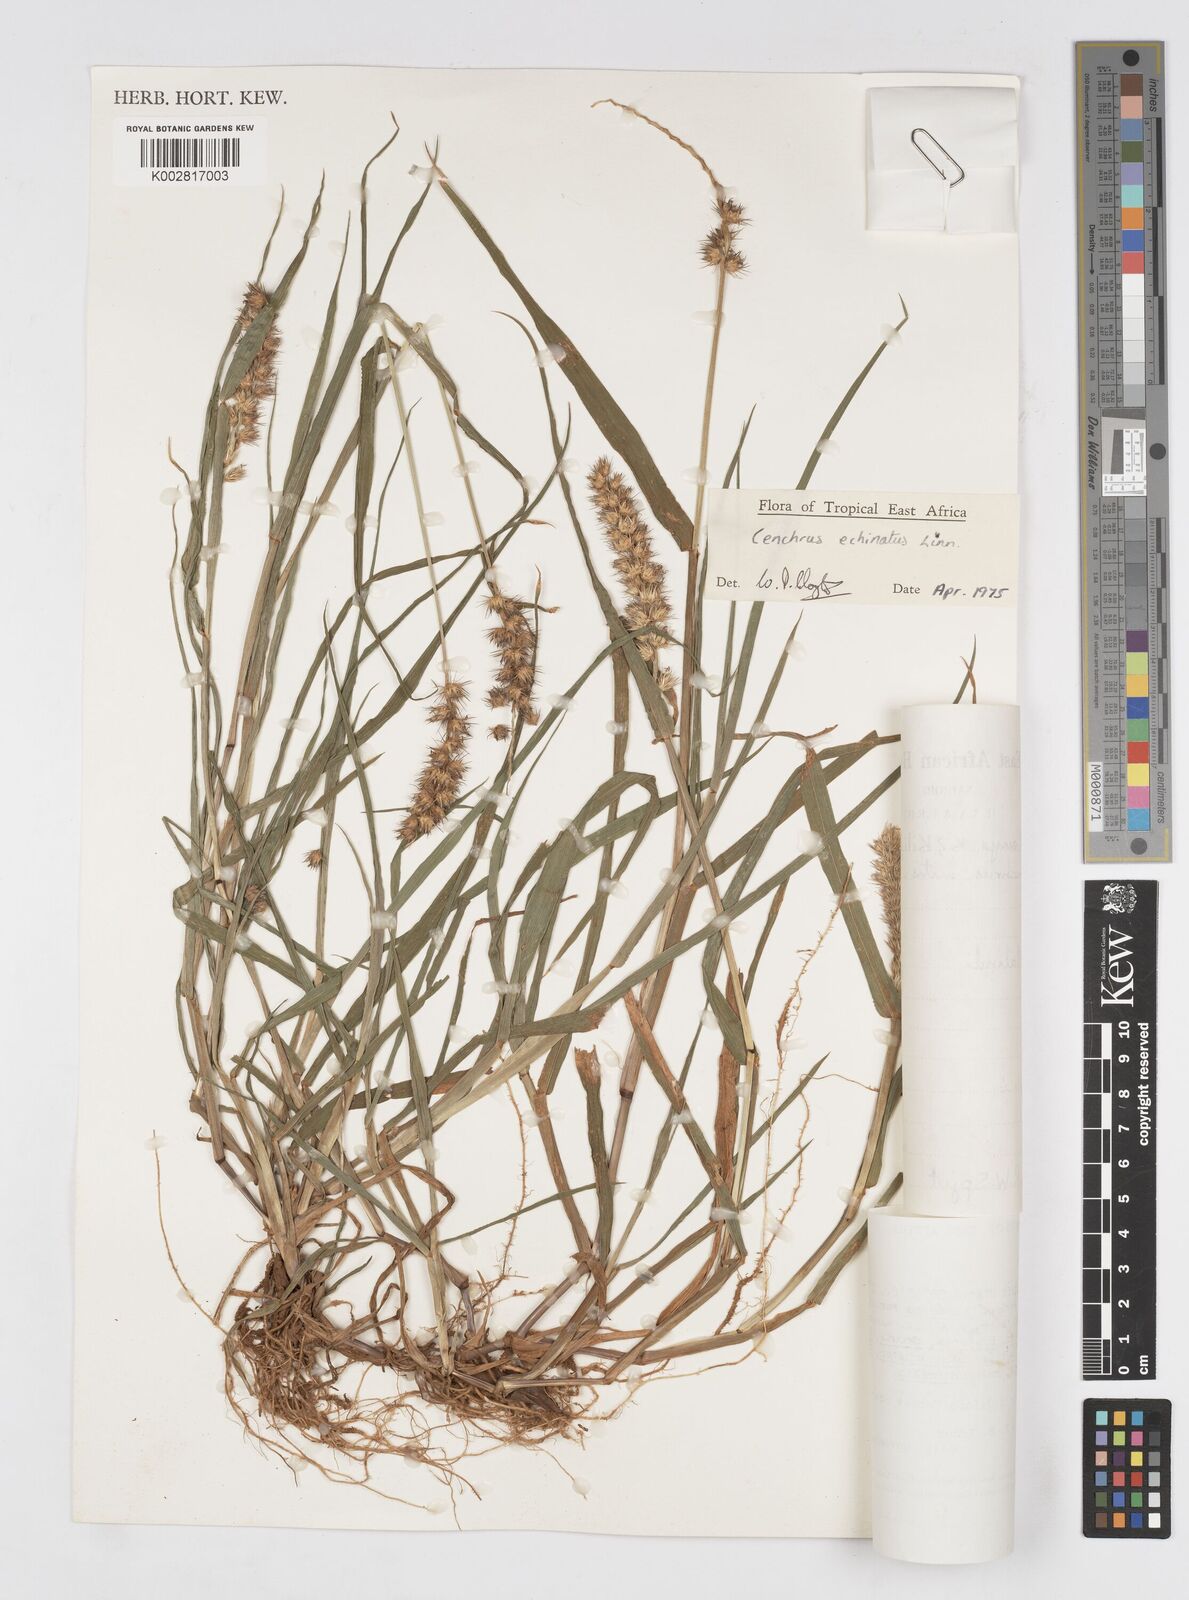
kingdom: Plantae
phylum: Tracheophyta
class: Liliopsida
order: Poales
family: Poaceae
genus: Cenchrus
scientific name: Cenchrus echinatus
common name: Southern sandbur
